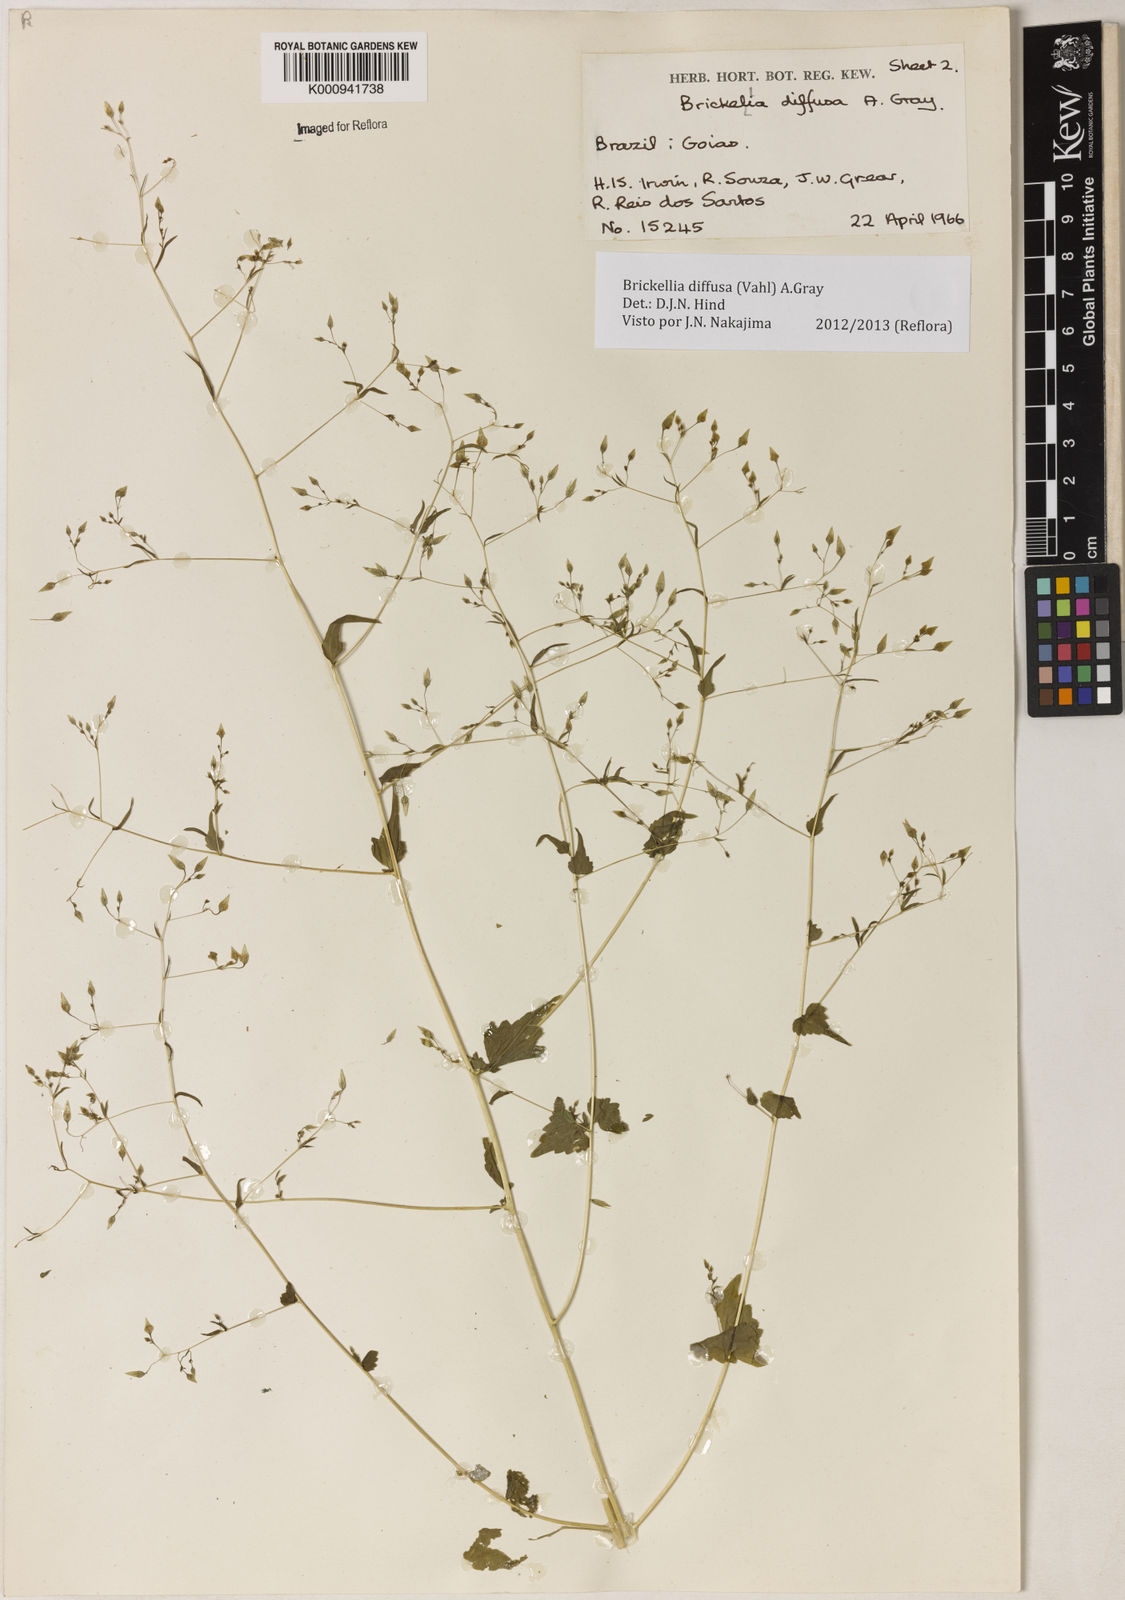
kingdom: Plantae
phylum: Tracheophyta
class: Magnoliopsida
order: Asterales
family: Asteraceae
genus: Brickellia
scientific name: Brickellia diffusa
